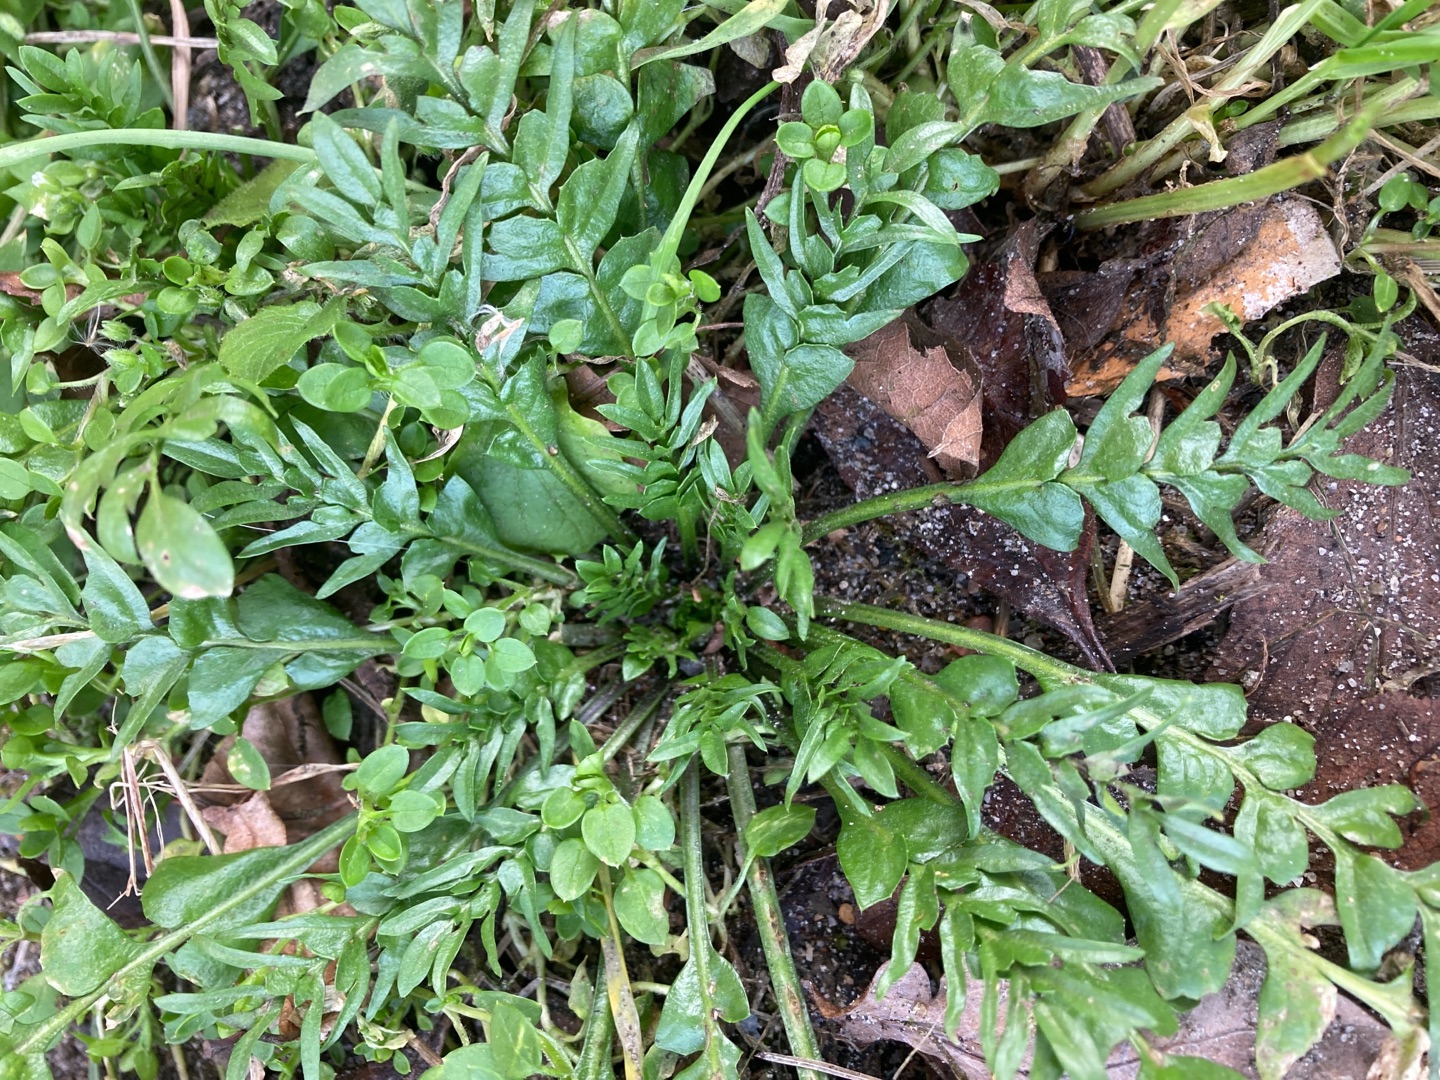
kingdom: Plantae
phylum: Tracheophyta
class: Magnoliopsida
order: Brassicales
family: Brassicaceae
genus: Capsella
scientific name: Capsella bursa-pastoris
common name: Hyrdetaske
